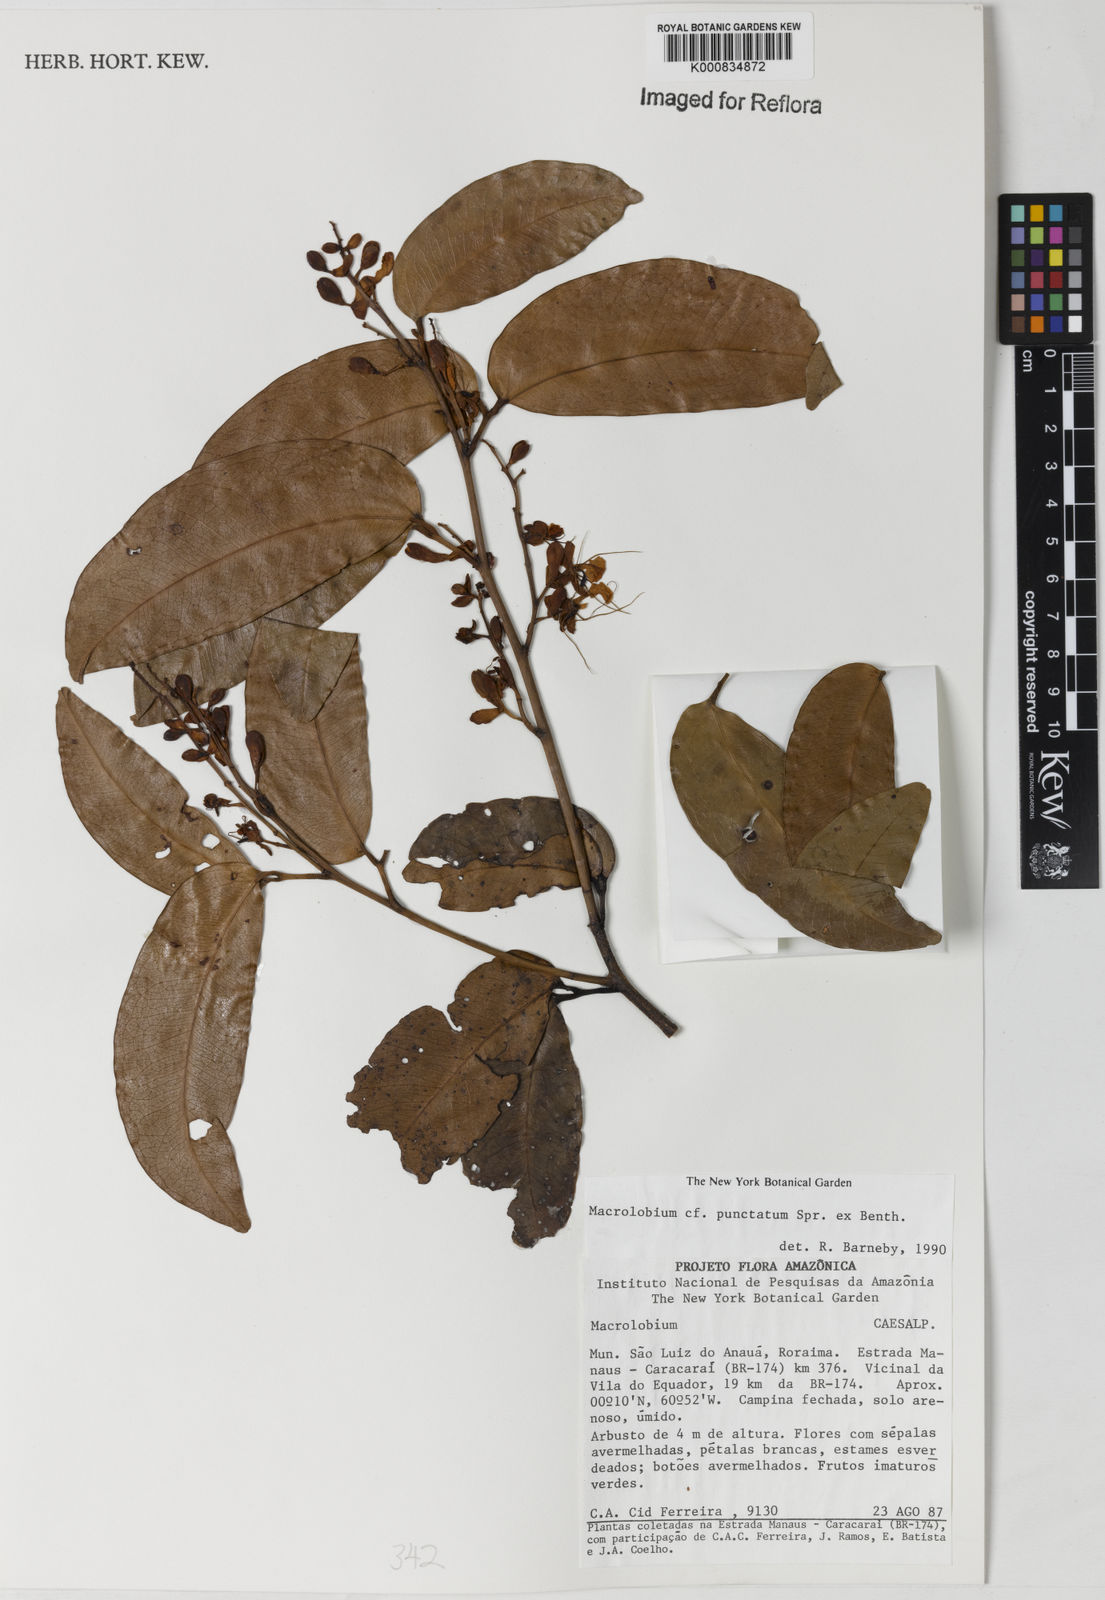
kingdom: Plantae
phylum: Tracheophyta
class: Magnoliopsida
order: Fabales
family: Fabaceae
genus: Macrolobium
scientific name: Macrolobium punctatum
